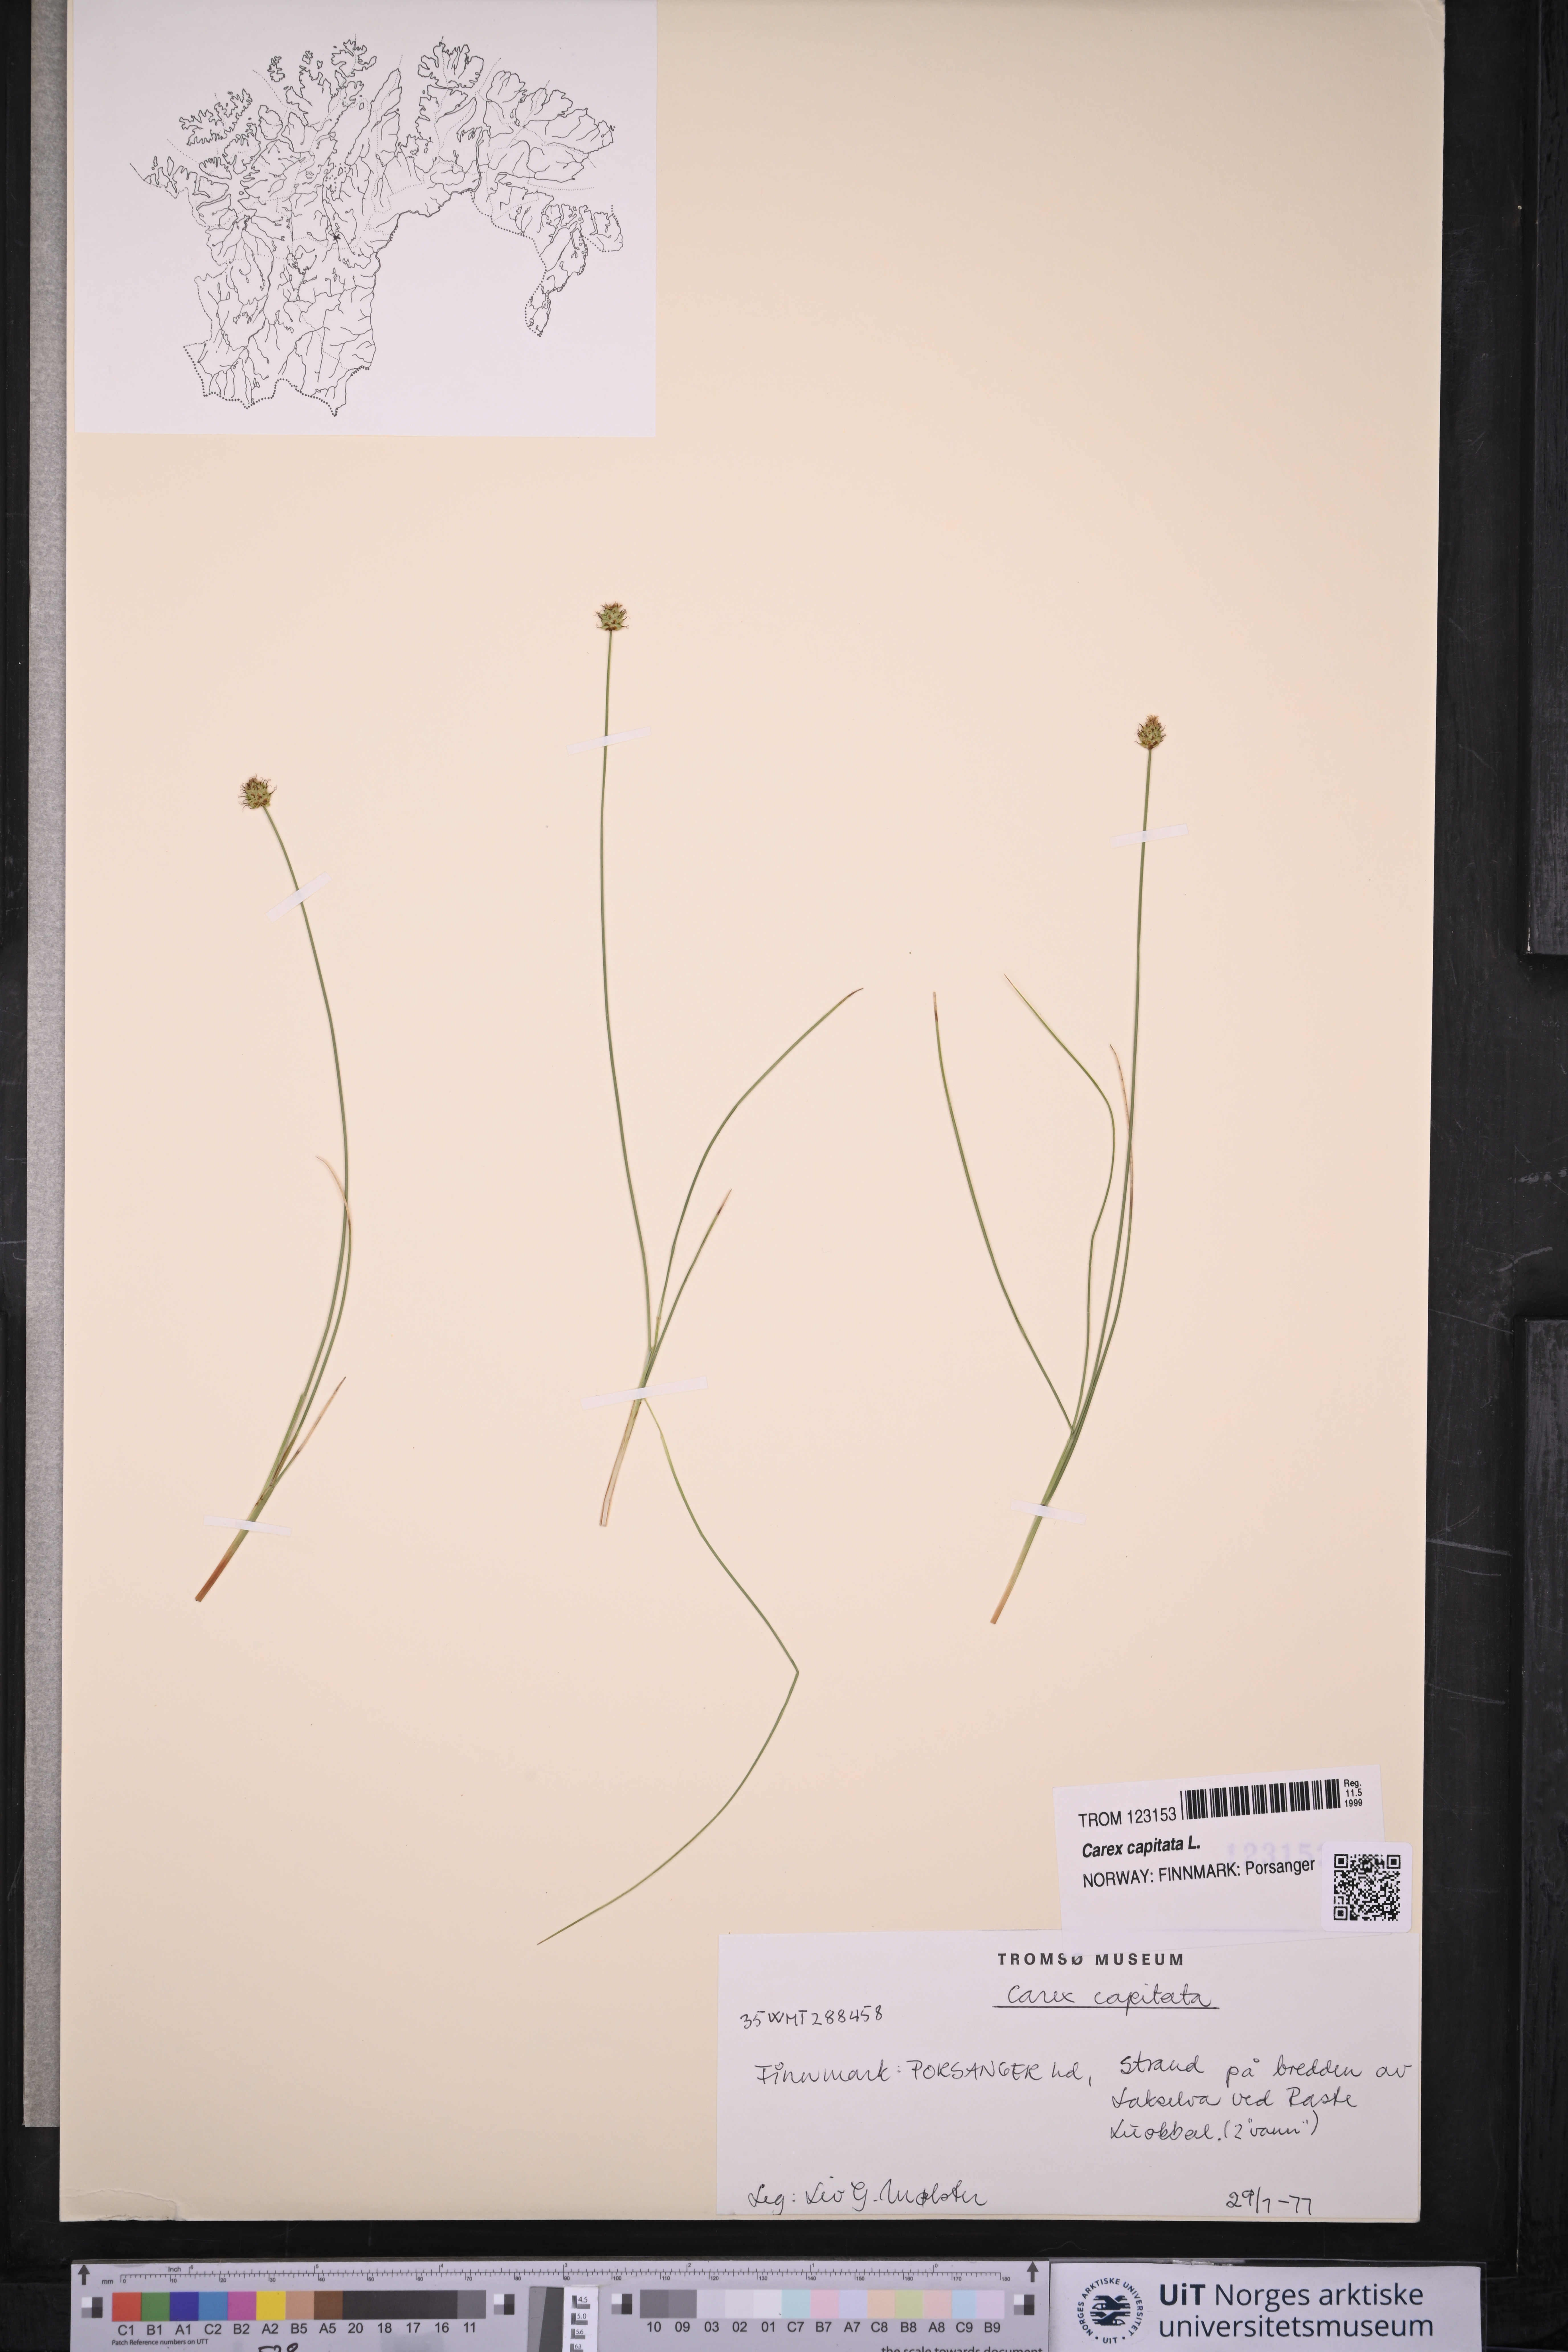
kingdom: Plantae
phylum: Tracheophyta
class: Liliopsida
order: Poales
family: Cyperaceae
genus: Carex
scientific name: Carex capitata
